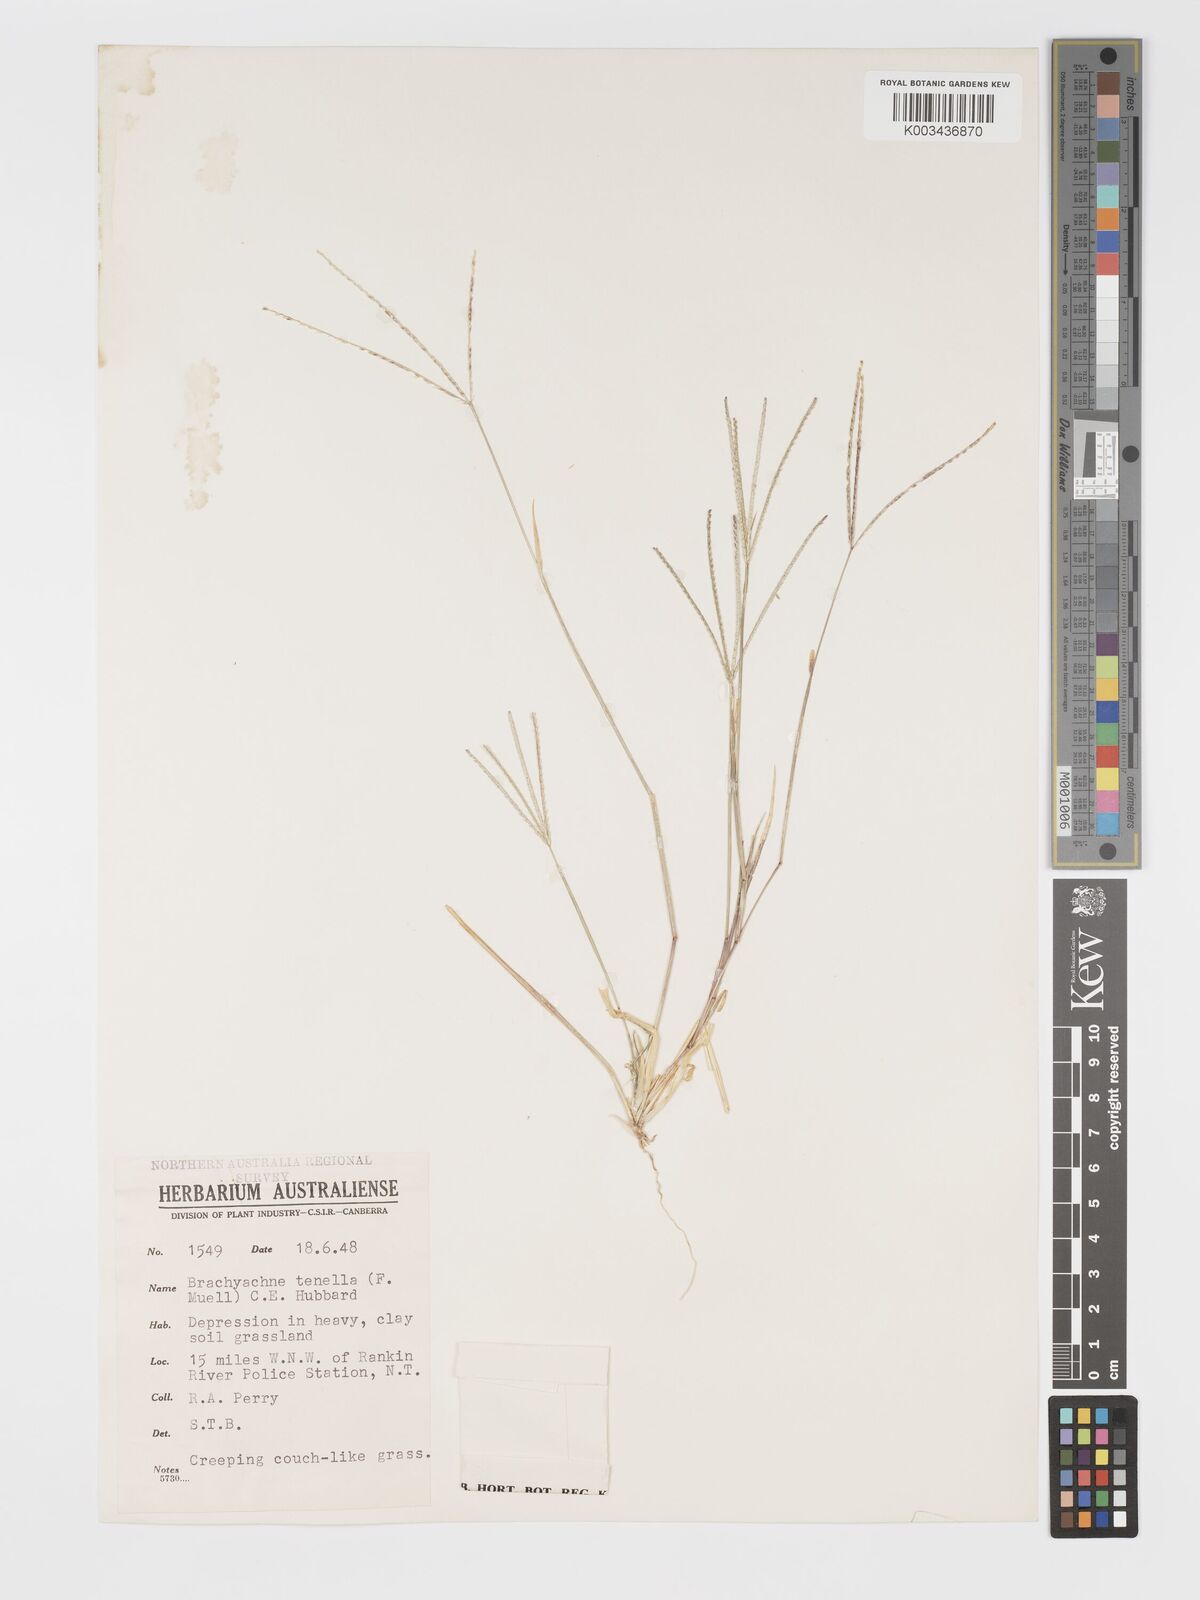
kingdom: Plantae
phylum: Tracheophyta
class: Liliopsida
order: Poales
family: Poaceae
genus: Cynodon
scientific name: Cynodon tenellus
